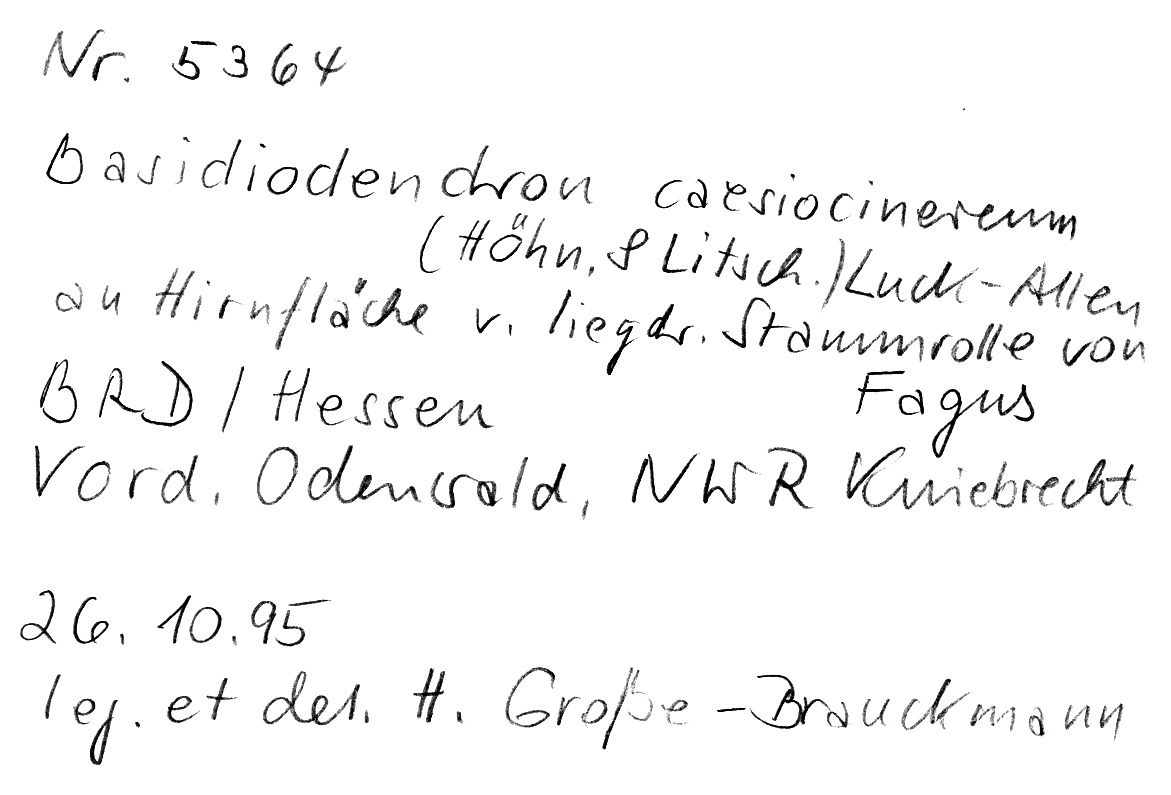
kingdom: Fungi
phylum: Basidiomycota
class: Agaricomycetes
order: Auriculariales
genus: Basidiodendron
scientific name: Basidiodendron caesiocinereum
